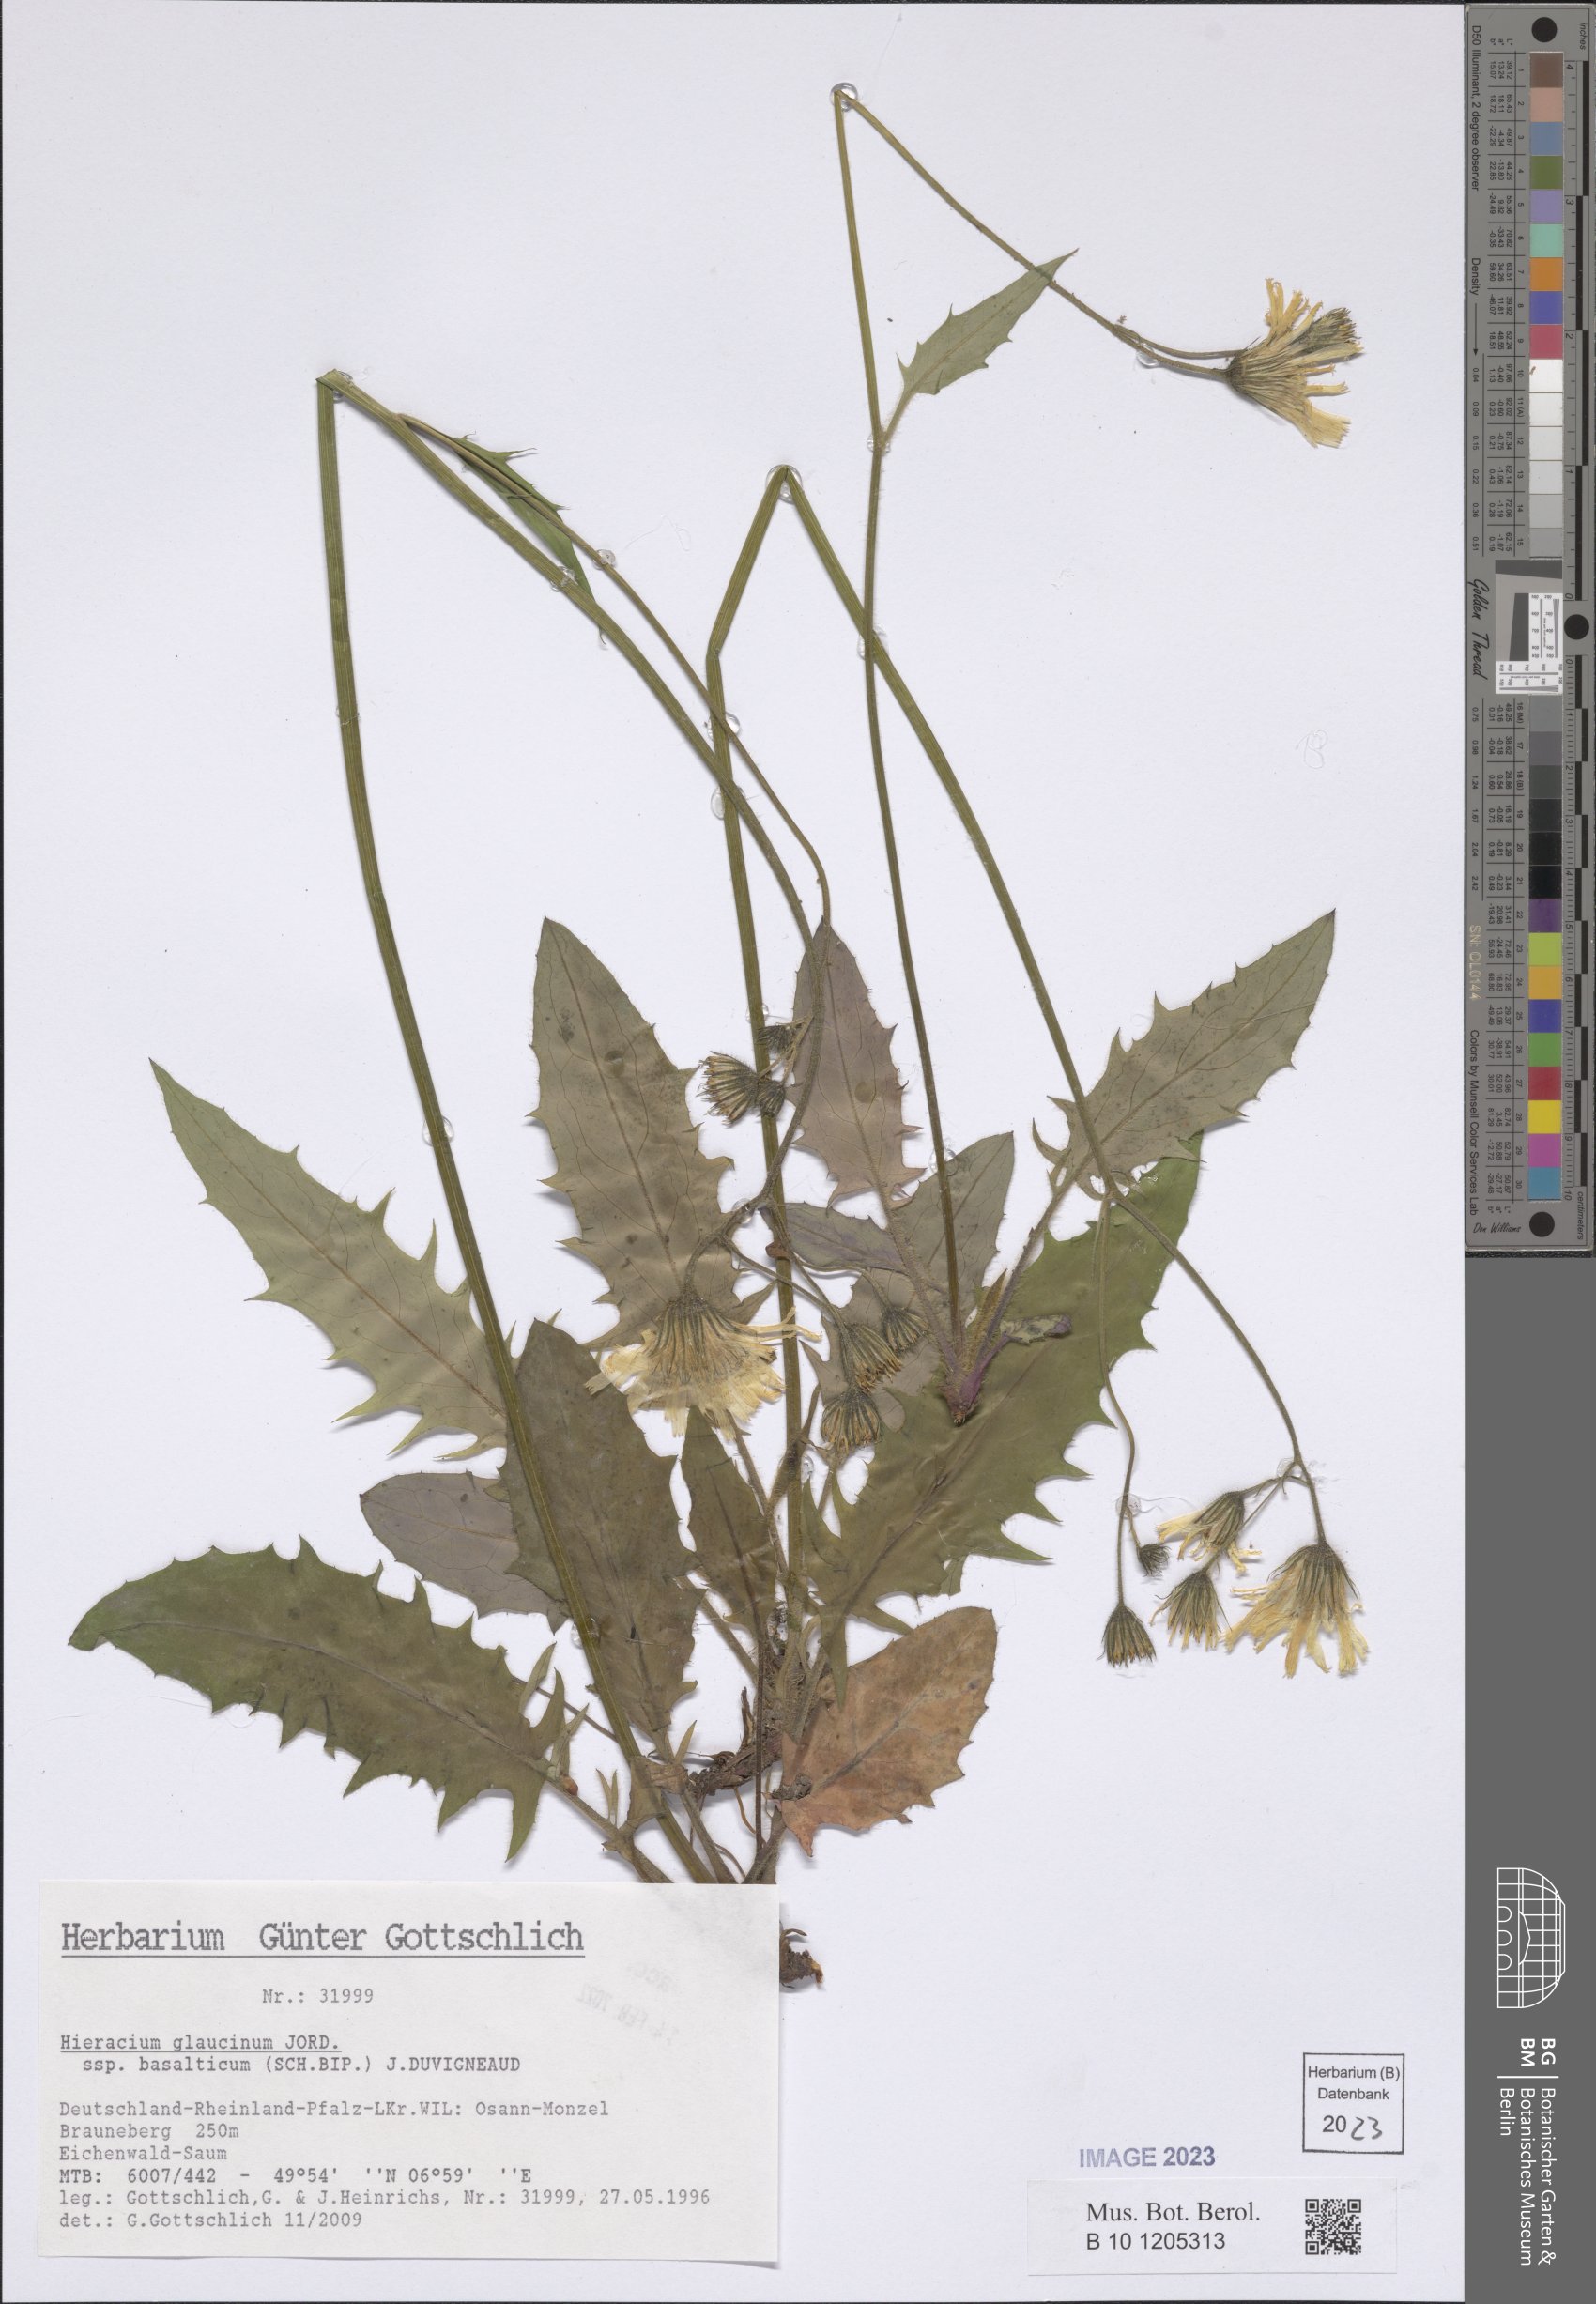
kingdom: Plantae
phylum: Tracheophyta
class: Magnoliopsida
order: Asterales
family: Asteraceae
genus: Hieracium
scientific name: Hieracium glaucinum
